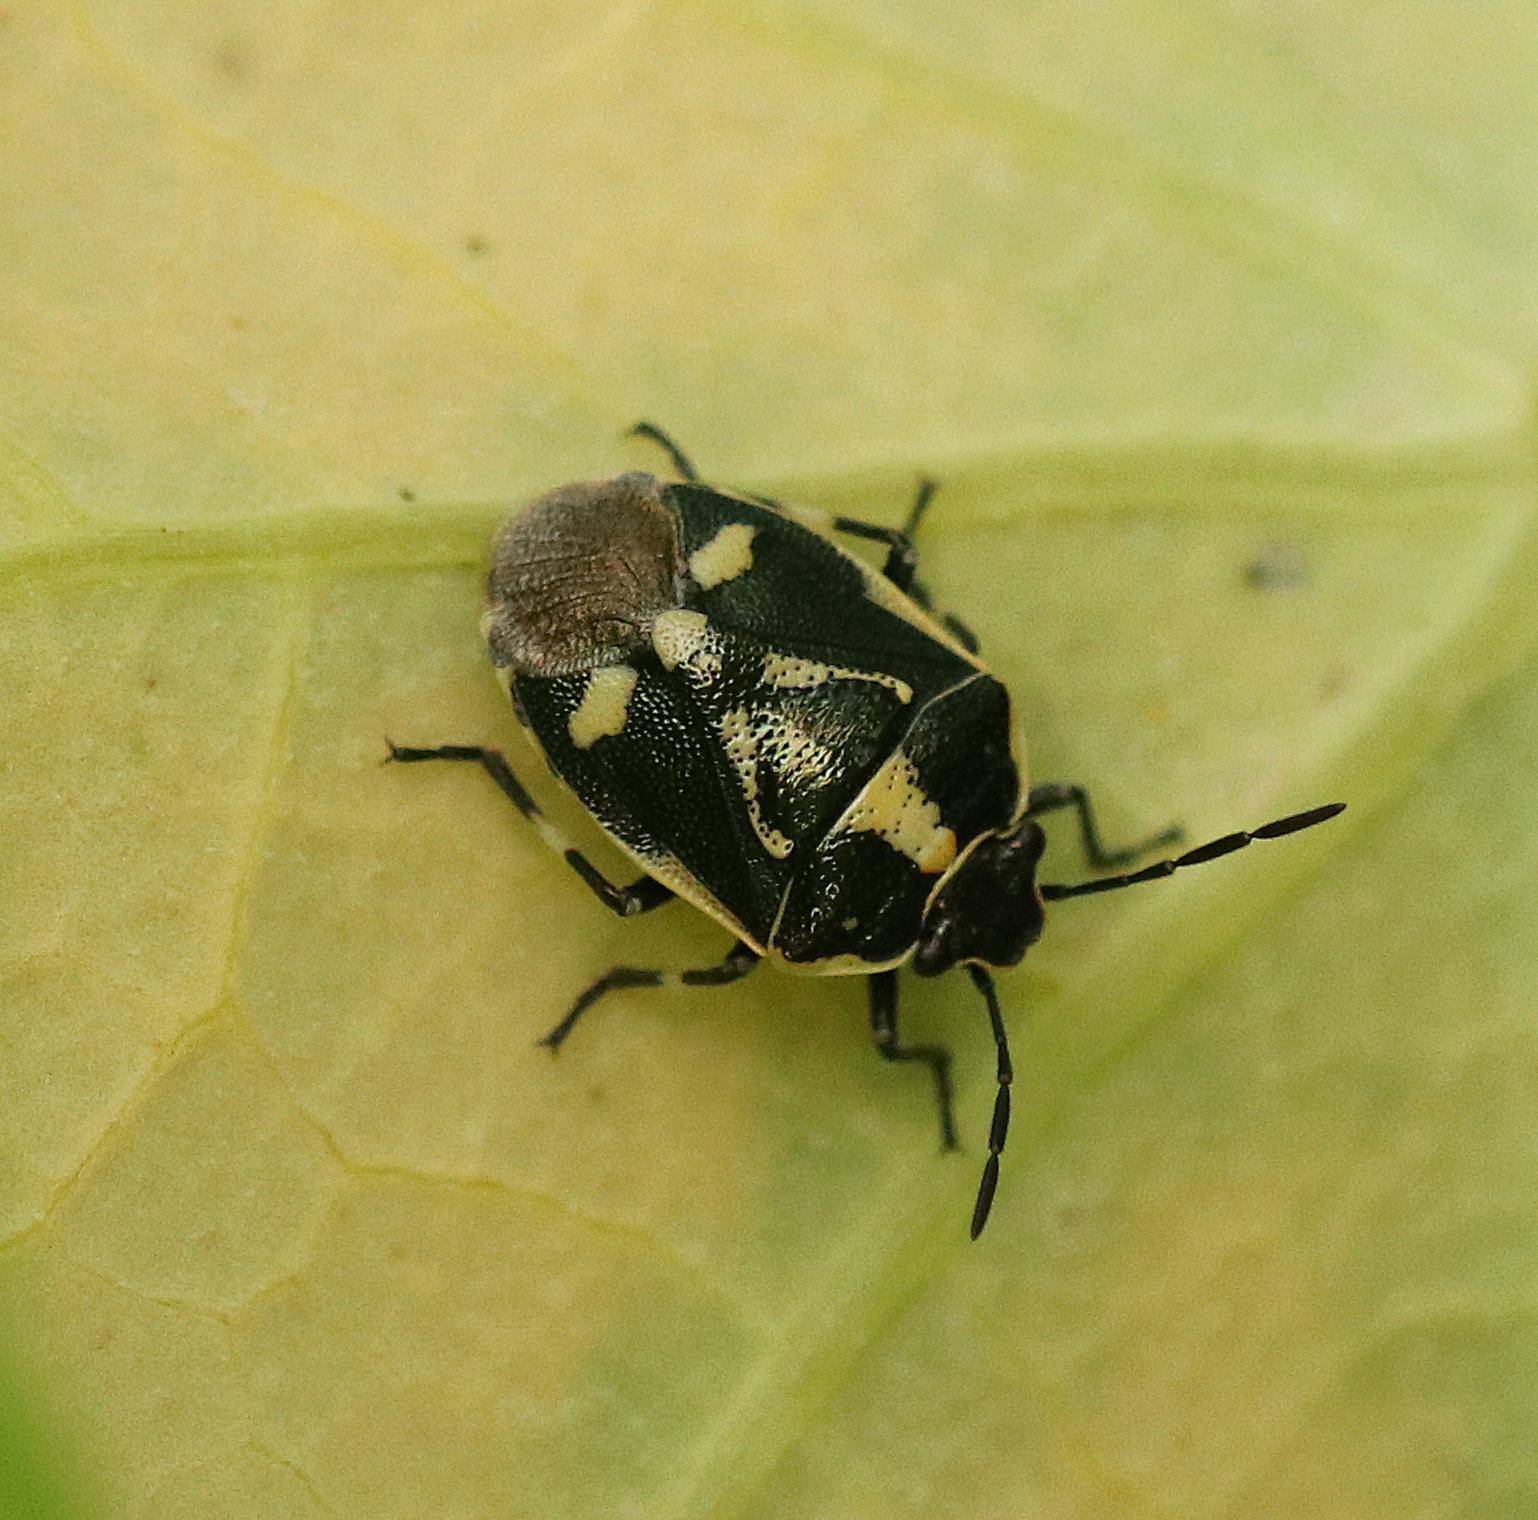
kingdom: Animalia
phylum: Arthropoda
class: Insecta
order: Hemiptera
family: Pentatomidae
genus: Eurydema
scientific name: Eurydema oleracea
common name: Almindelig kåltæge
